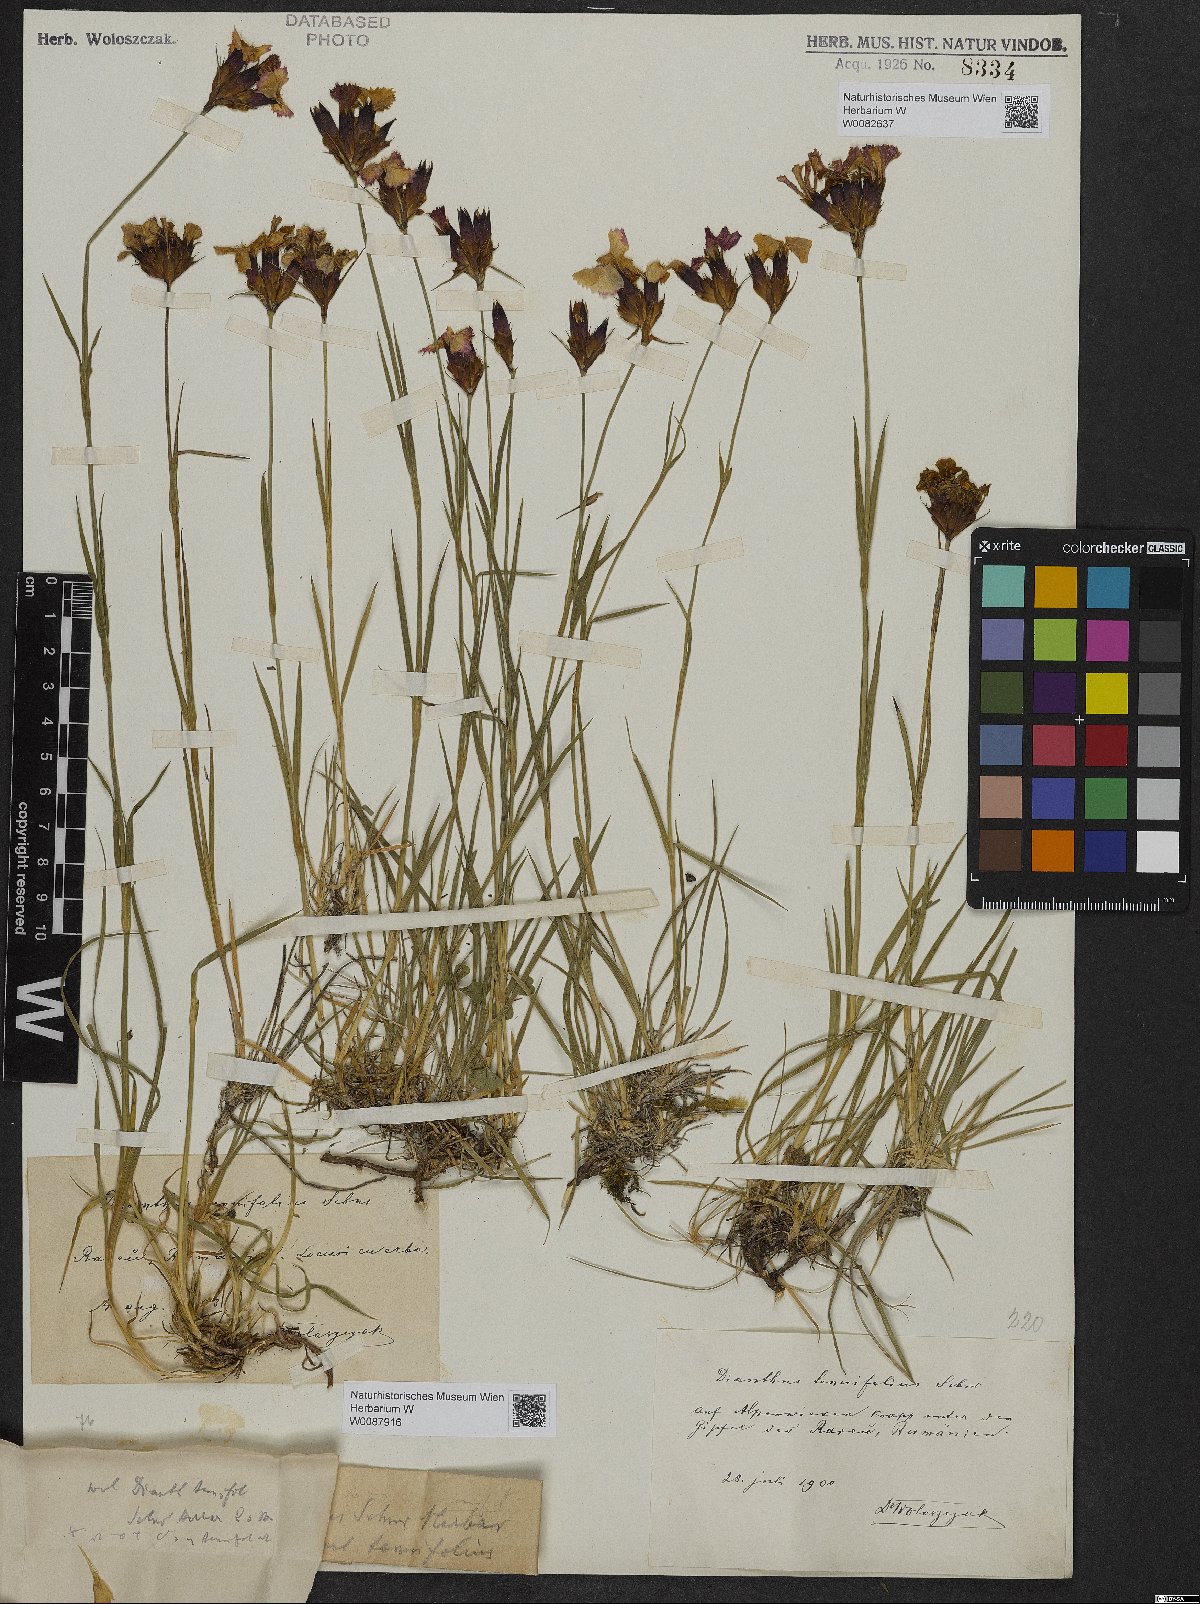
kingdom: Plantae
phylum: Tracheophyta
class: Magnoliopsida
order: Caryophyllales
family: Caryophyllaceae
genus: Dianthus
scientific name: Dianthus carthusianorum
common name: Carthusian pink
